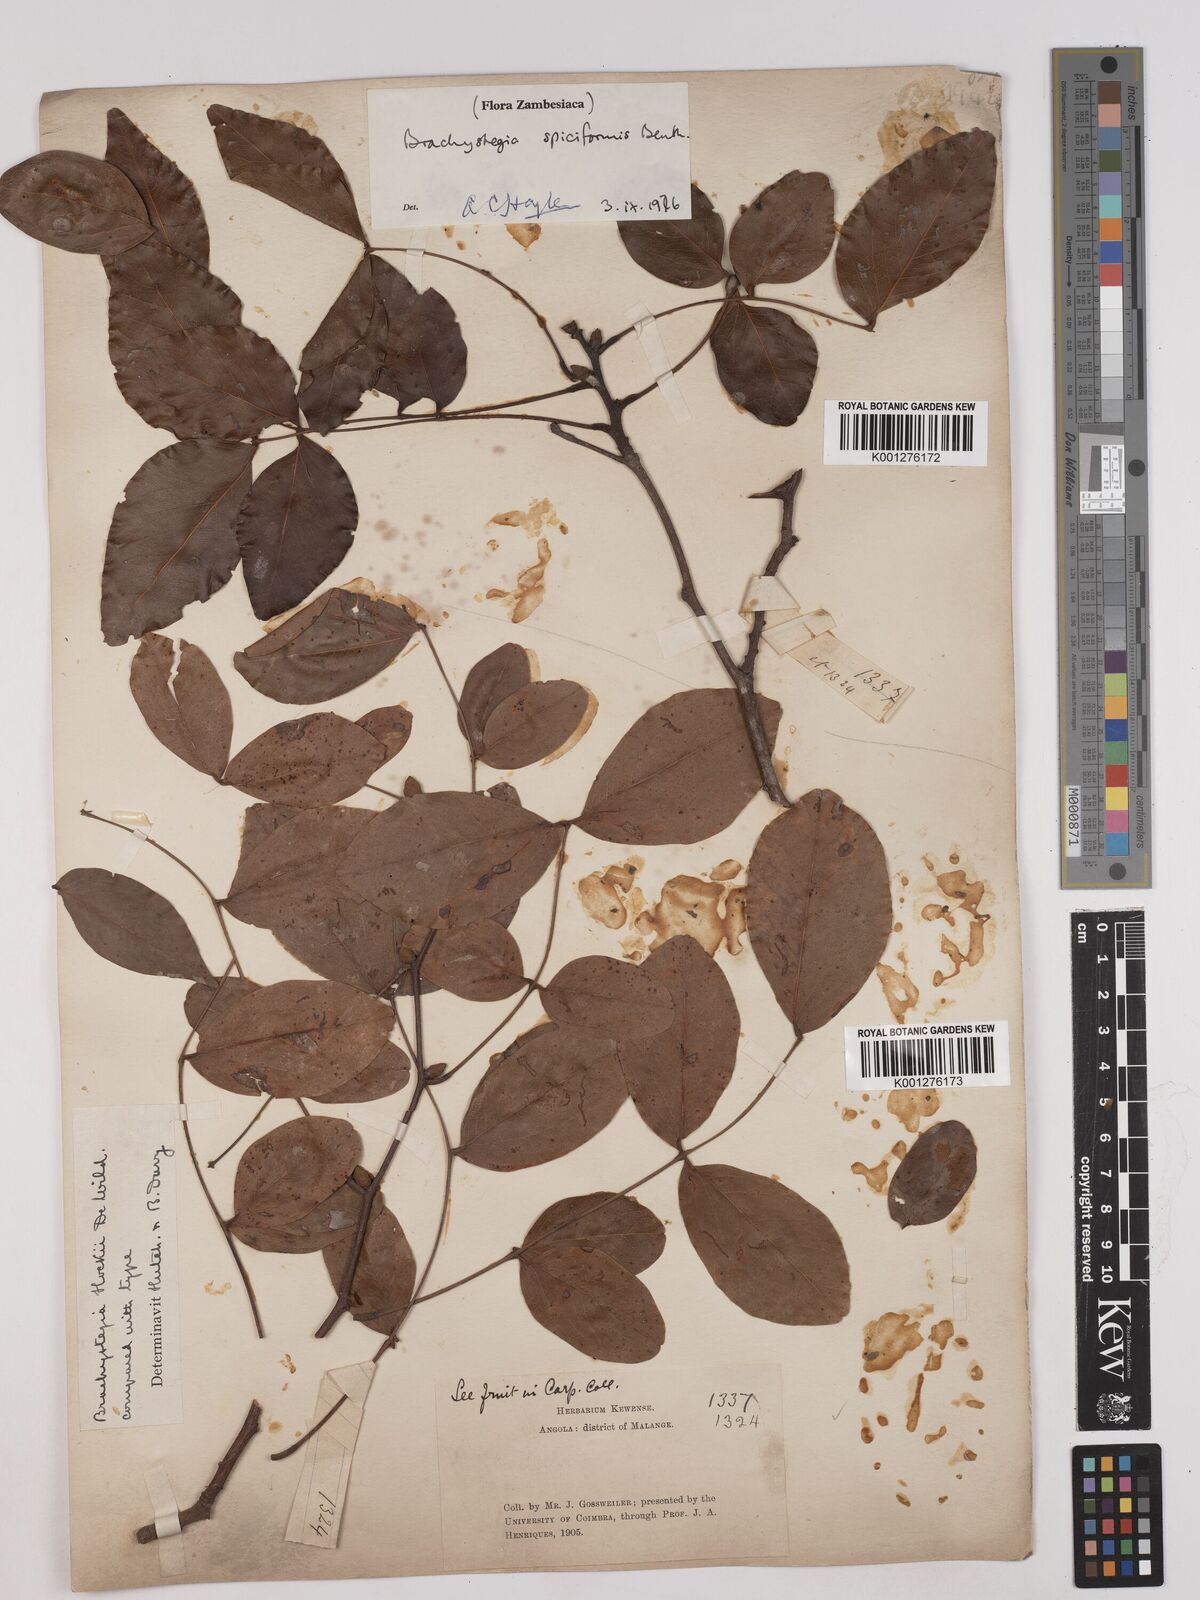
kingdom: Plantae
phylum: Tracheophyta
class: Magnoliopsida
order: Fabales
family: Fabaceae
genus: Brachystegia
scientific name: Brachystegia
